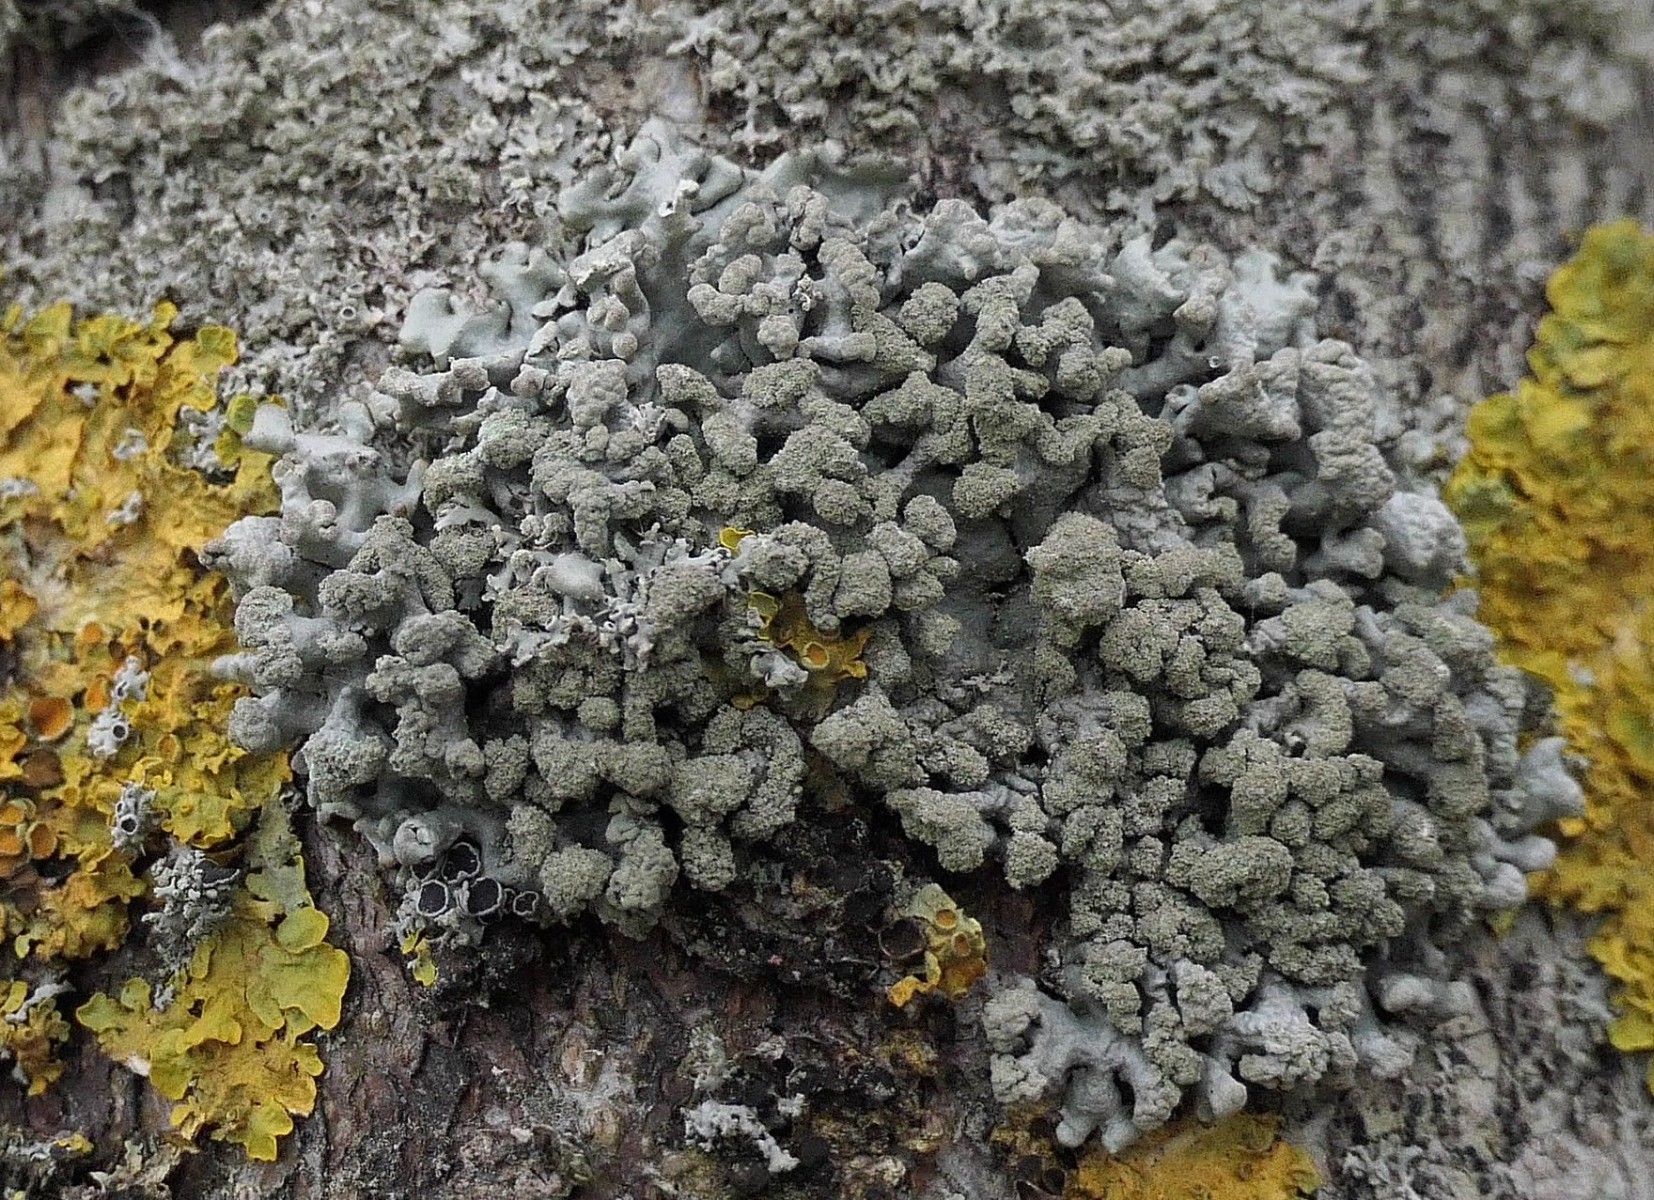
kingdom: Fungi
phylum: Ascomycota
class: Lecanoromycetes
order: Lecanorales
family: Parmeliaceae
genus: Hypogymnia
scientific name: Hypogymnia tubulosa
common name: finger-kvistlav
